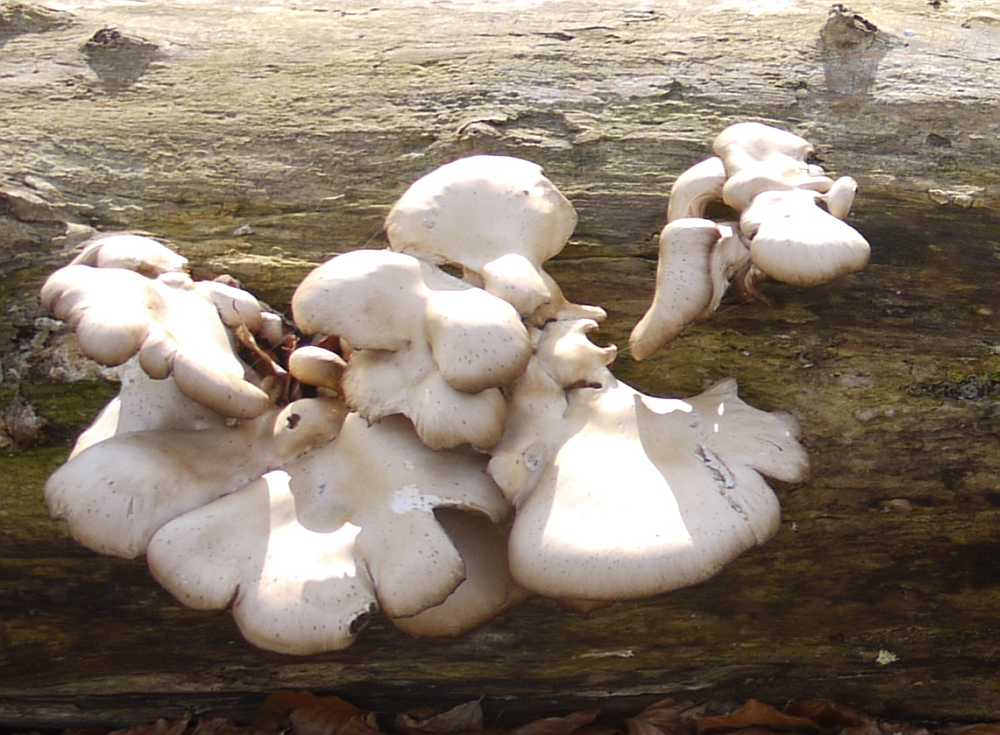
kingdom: Fungi
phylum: Basidiomycota
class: Agaricomycetes
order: Agaricales
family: Pleurotaceae
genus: Pleurotus
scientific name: Pleurotus ostreatus
